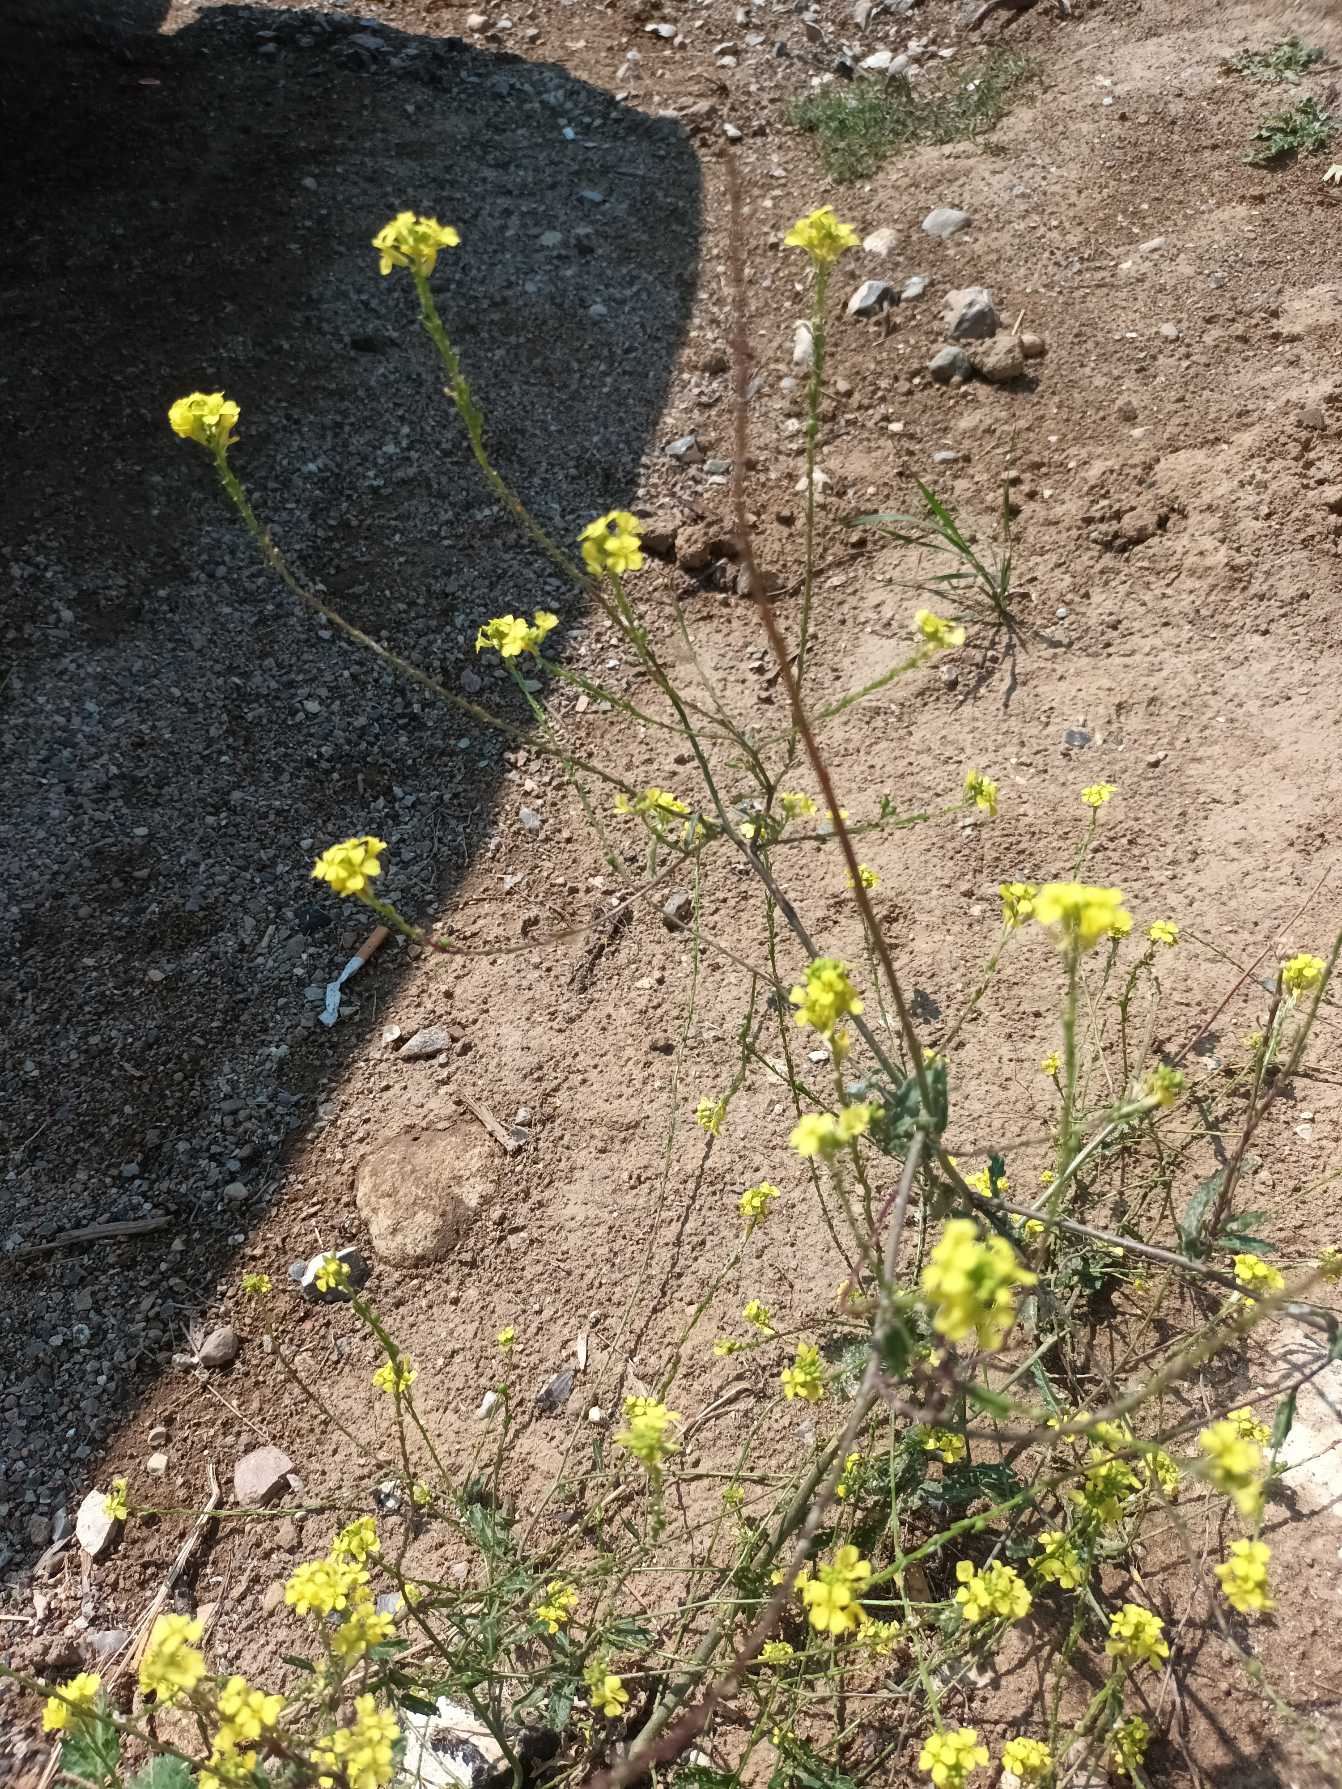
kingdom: Plantae
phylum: Tracheophyta
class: Magnoliopsida
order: Brassicales
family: Brassicaceae
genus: Rapistrum
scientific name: Rapistrum rugosum
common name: Knopskulpe
